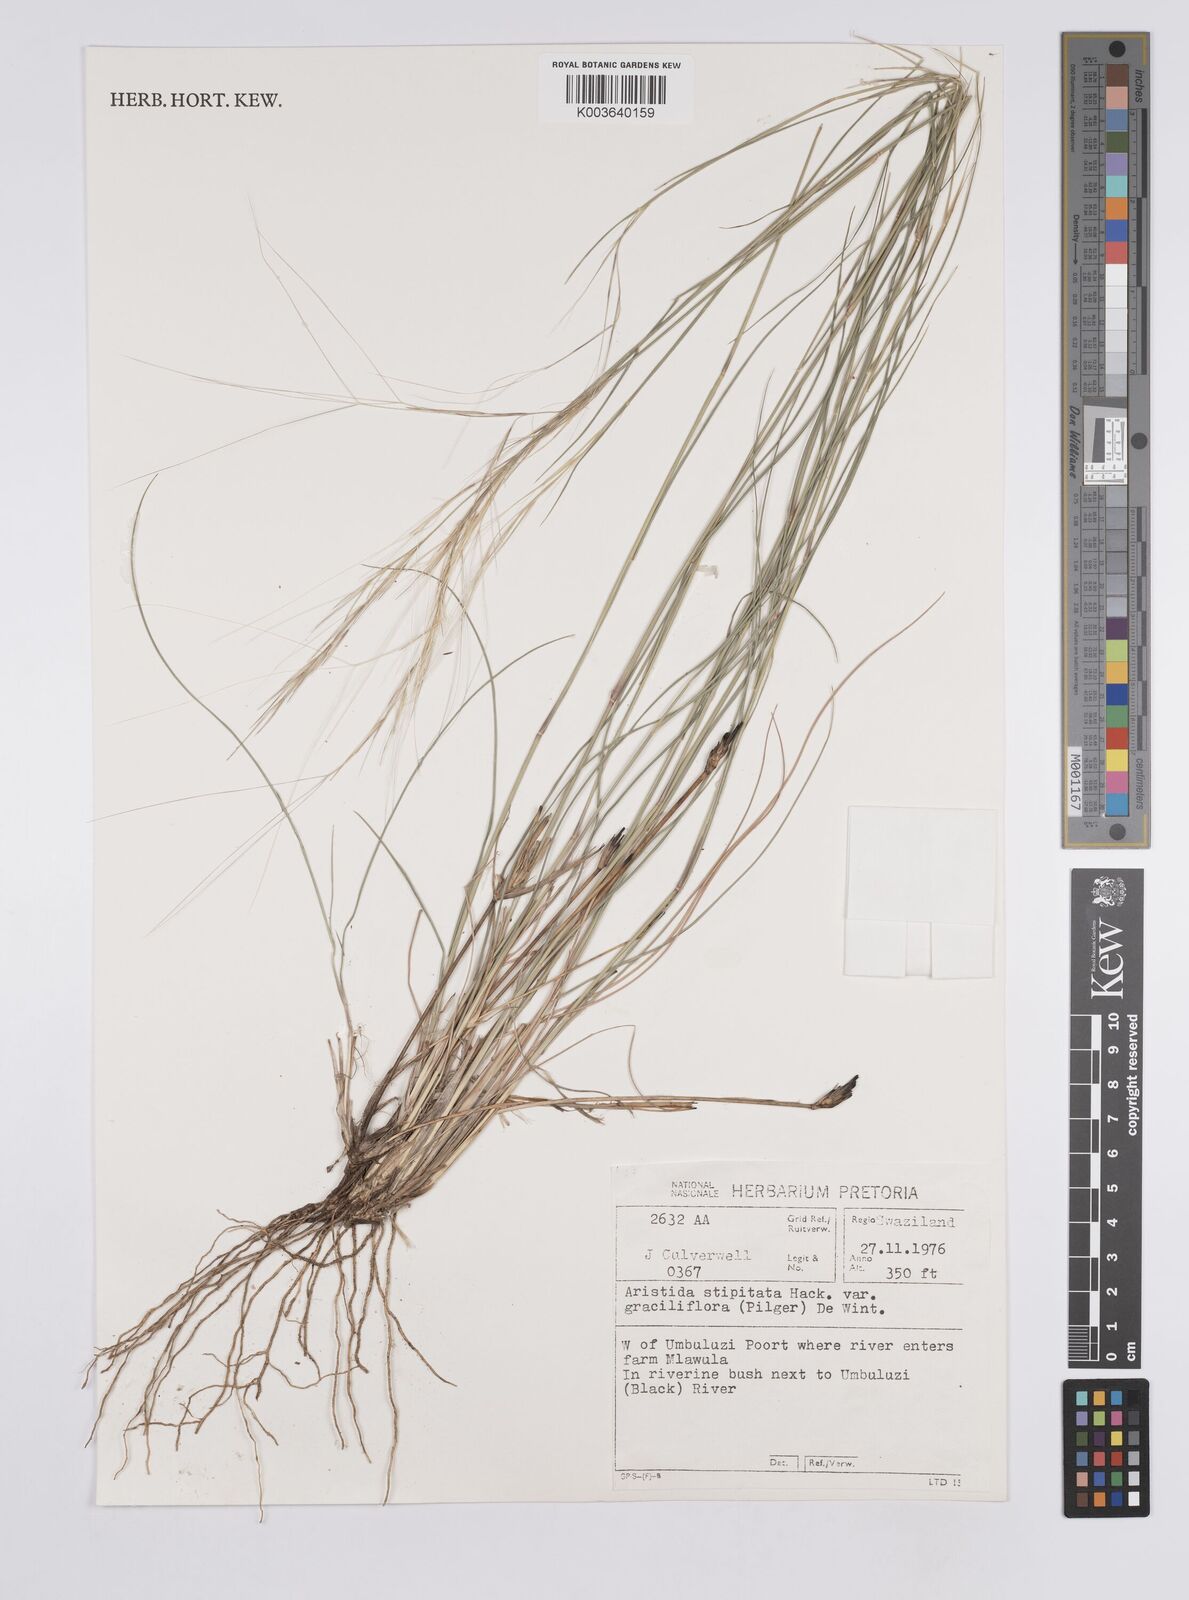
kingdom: Plantae
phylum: Tracheophyta
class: Liliopsida
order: Poales
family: Poaceae
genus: Aristida
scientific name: Aristida stipitata
